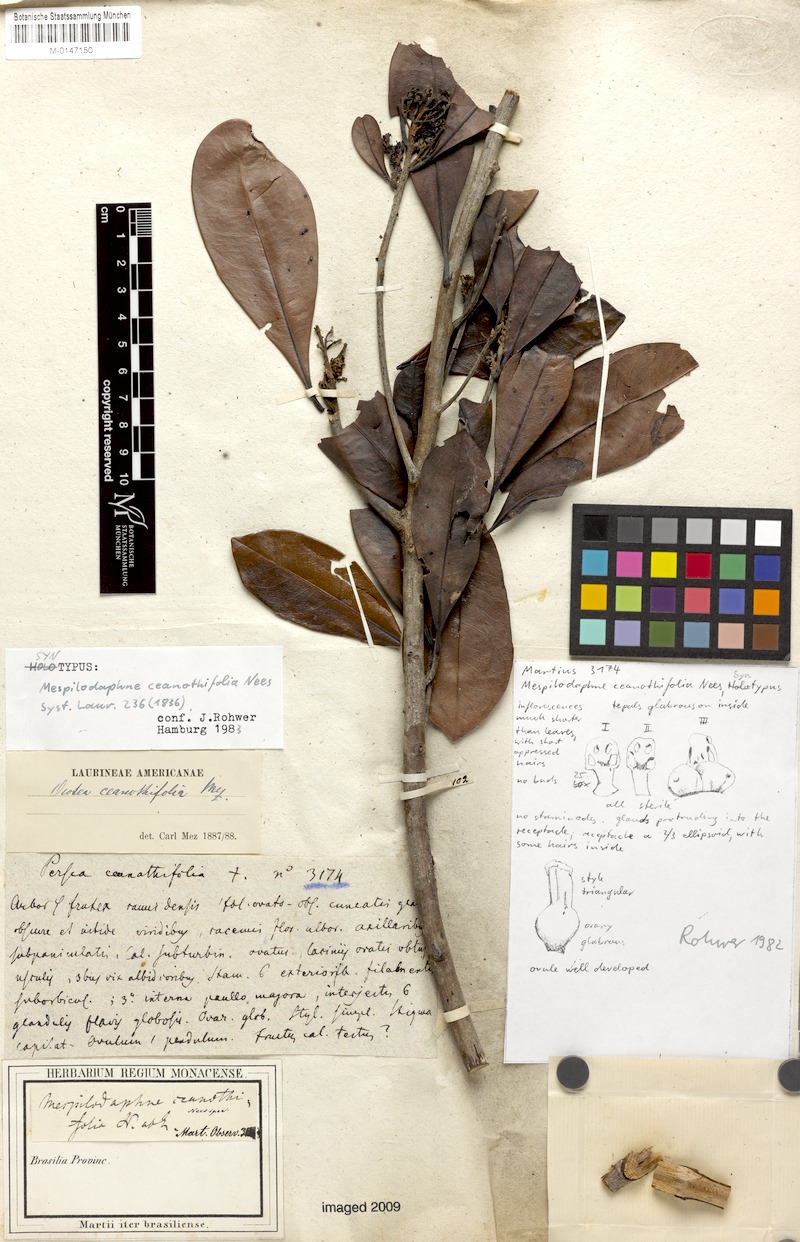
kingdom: Plantae
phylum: Tracheophyta
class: Magnoliopsida
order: Laurales
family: Lauraceae
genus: Mespilodaphne
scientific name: Mespilodaphne ceanothifolia
